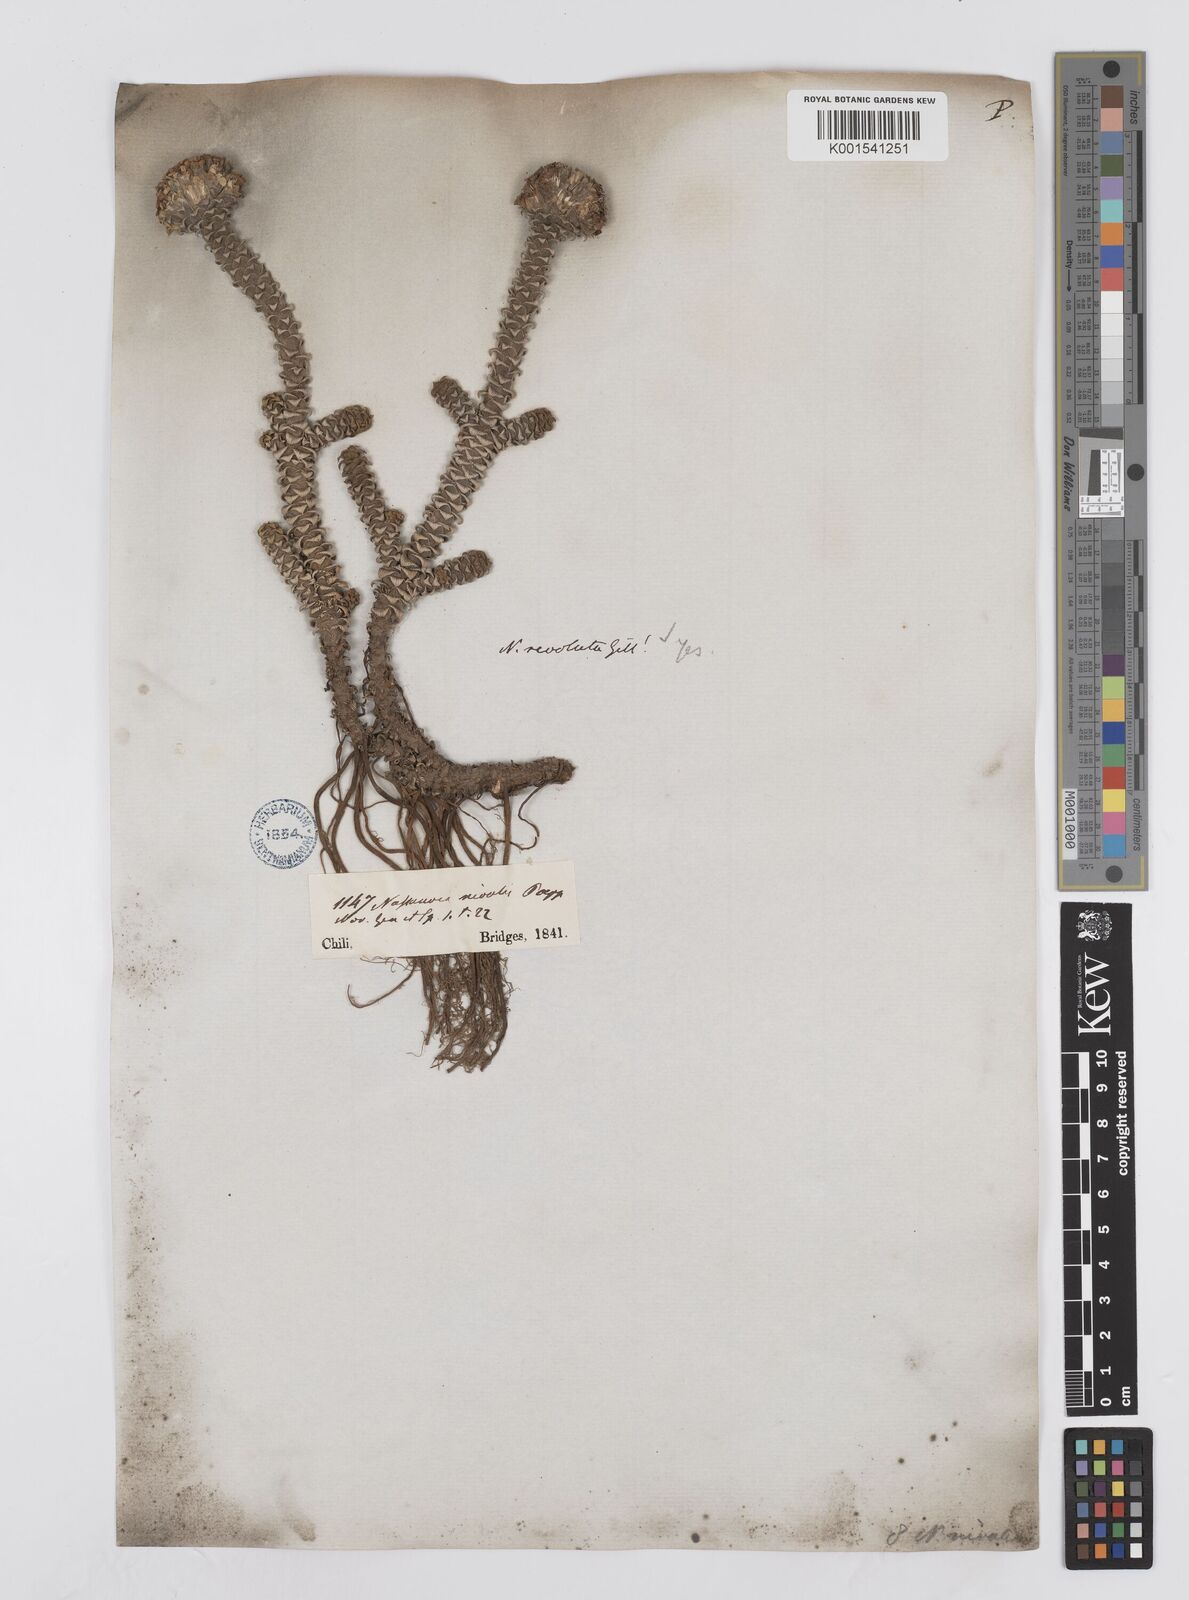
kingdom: Plantae
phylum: Tracheophyta
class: Magnoliopsida
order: Asterales
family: Asteraceae
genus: Nassauvia
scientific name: Nassauvia revoluta
